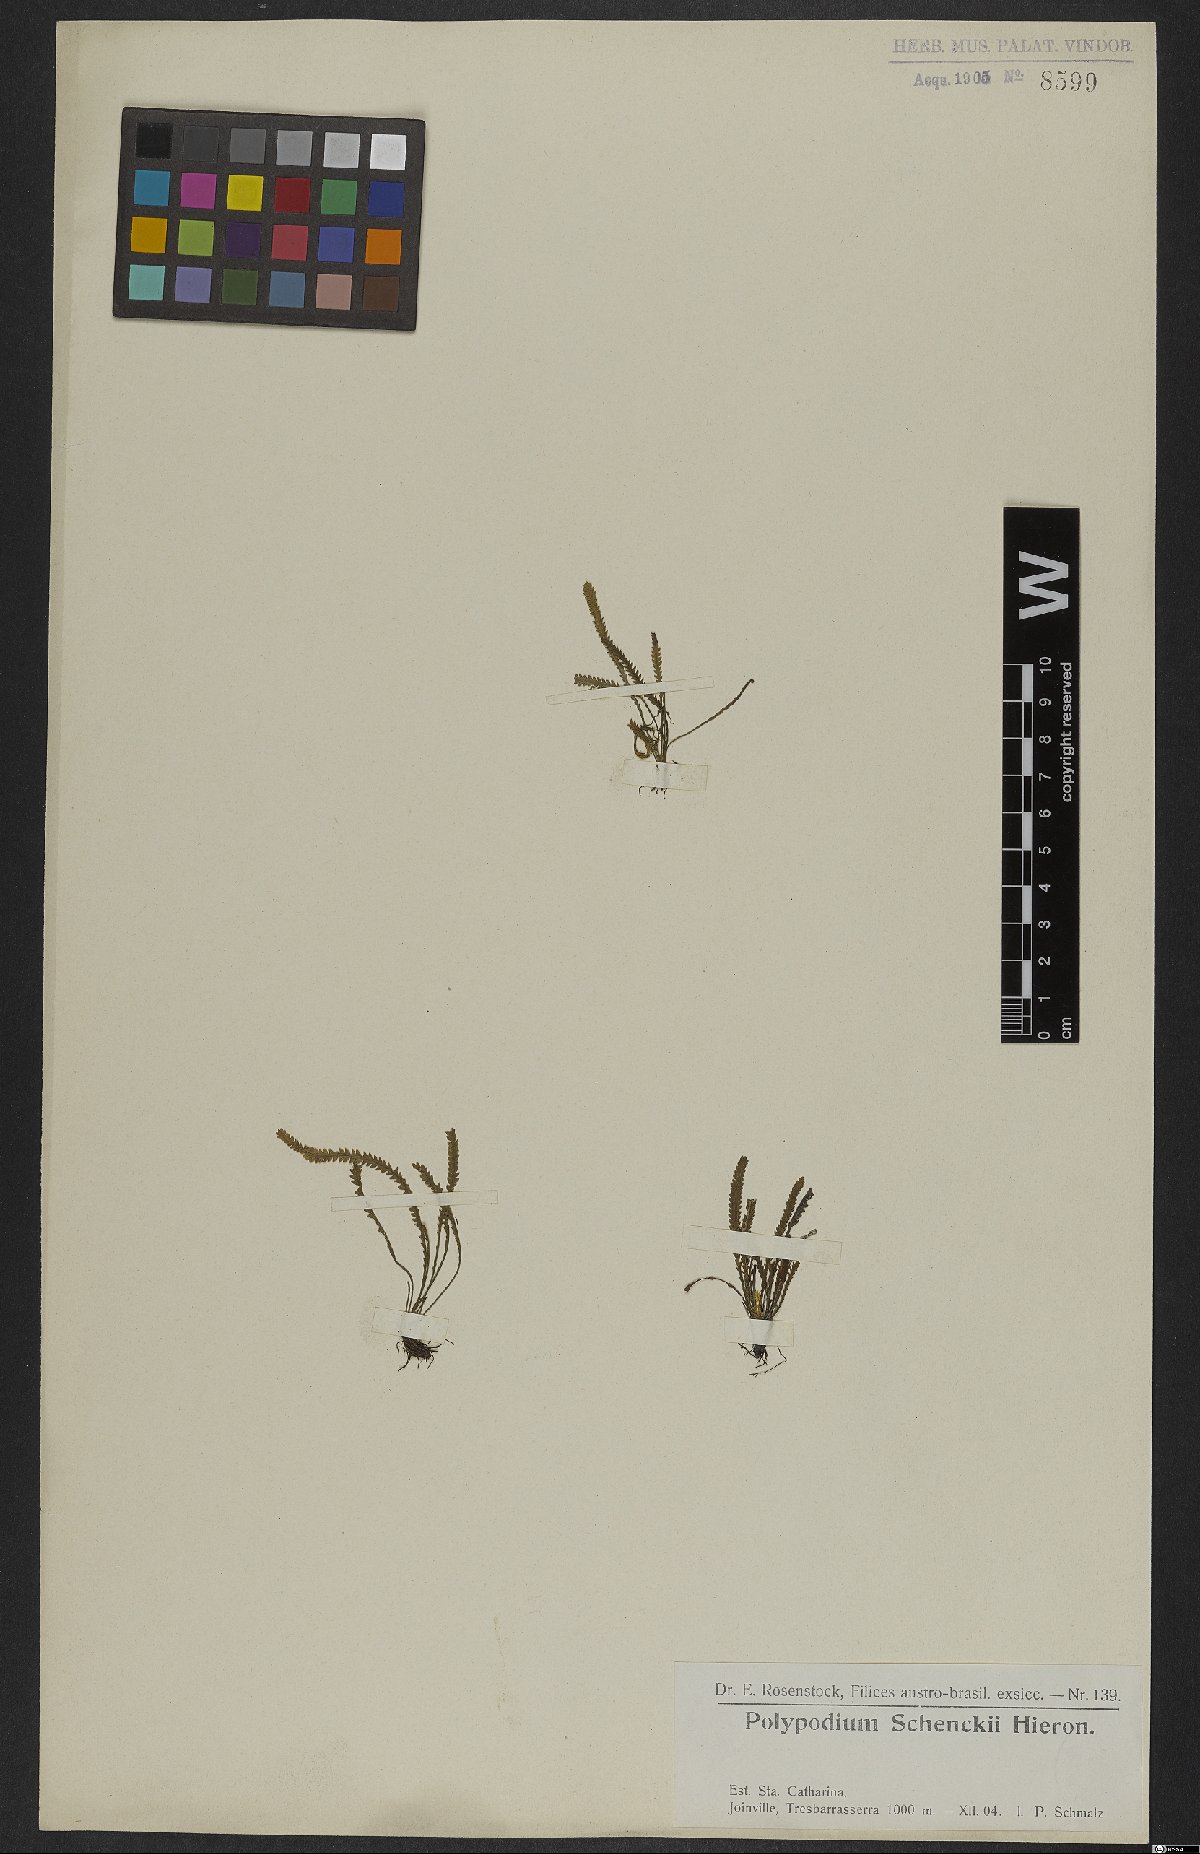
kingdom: Plantae
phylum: Tracheophyta
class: Polypodiopsida
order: Polypodiales
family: Polypodiaceae
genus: Leucotrichum
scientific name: Leucotrichum schenckii
